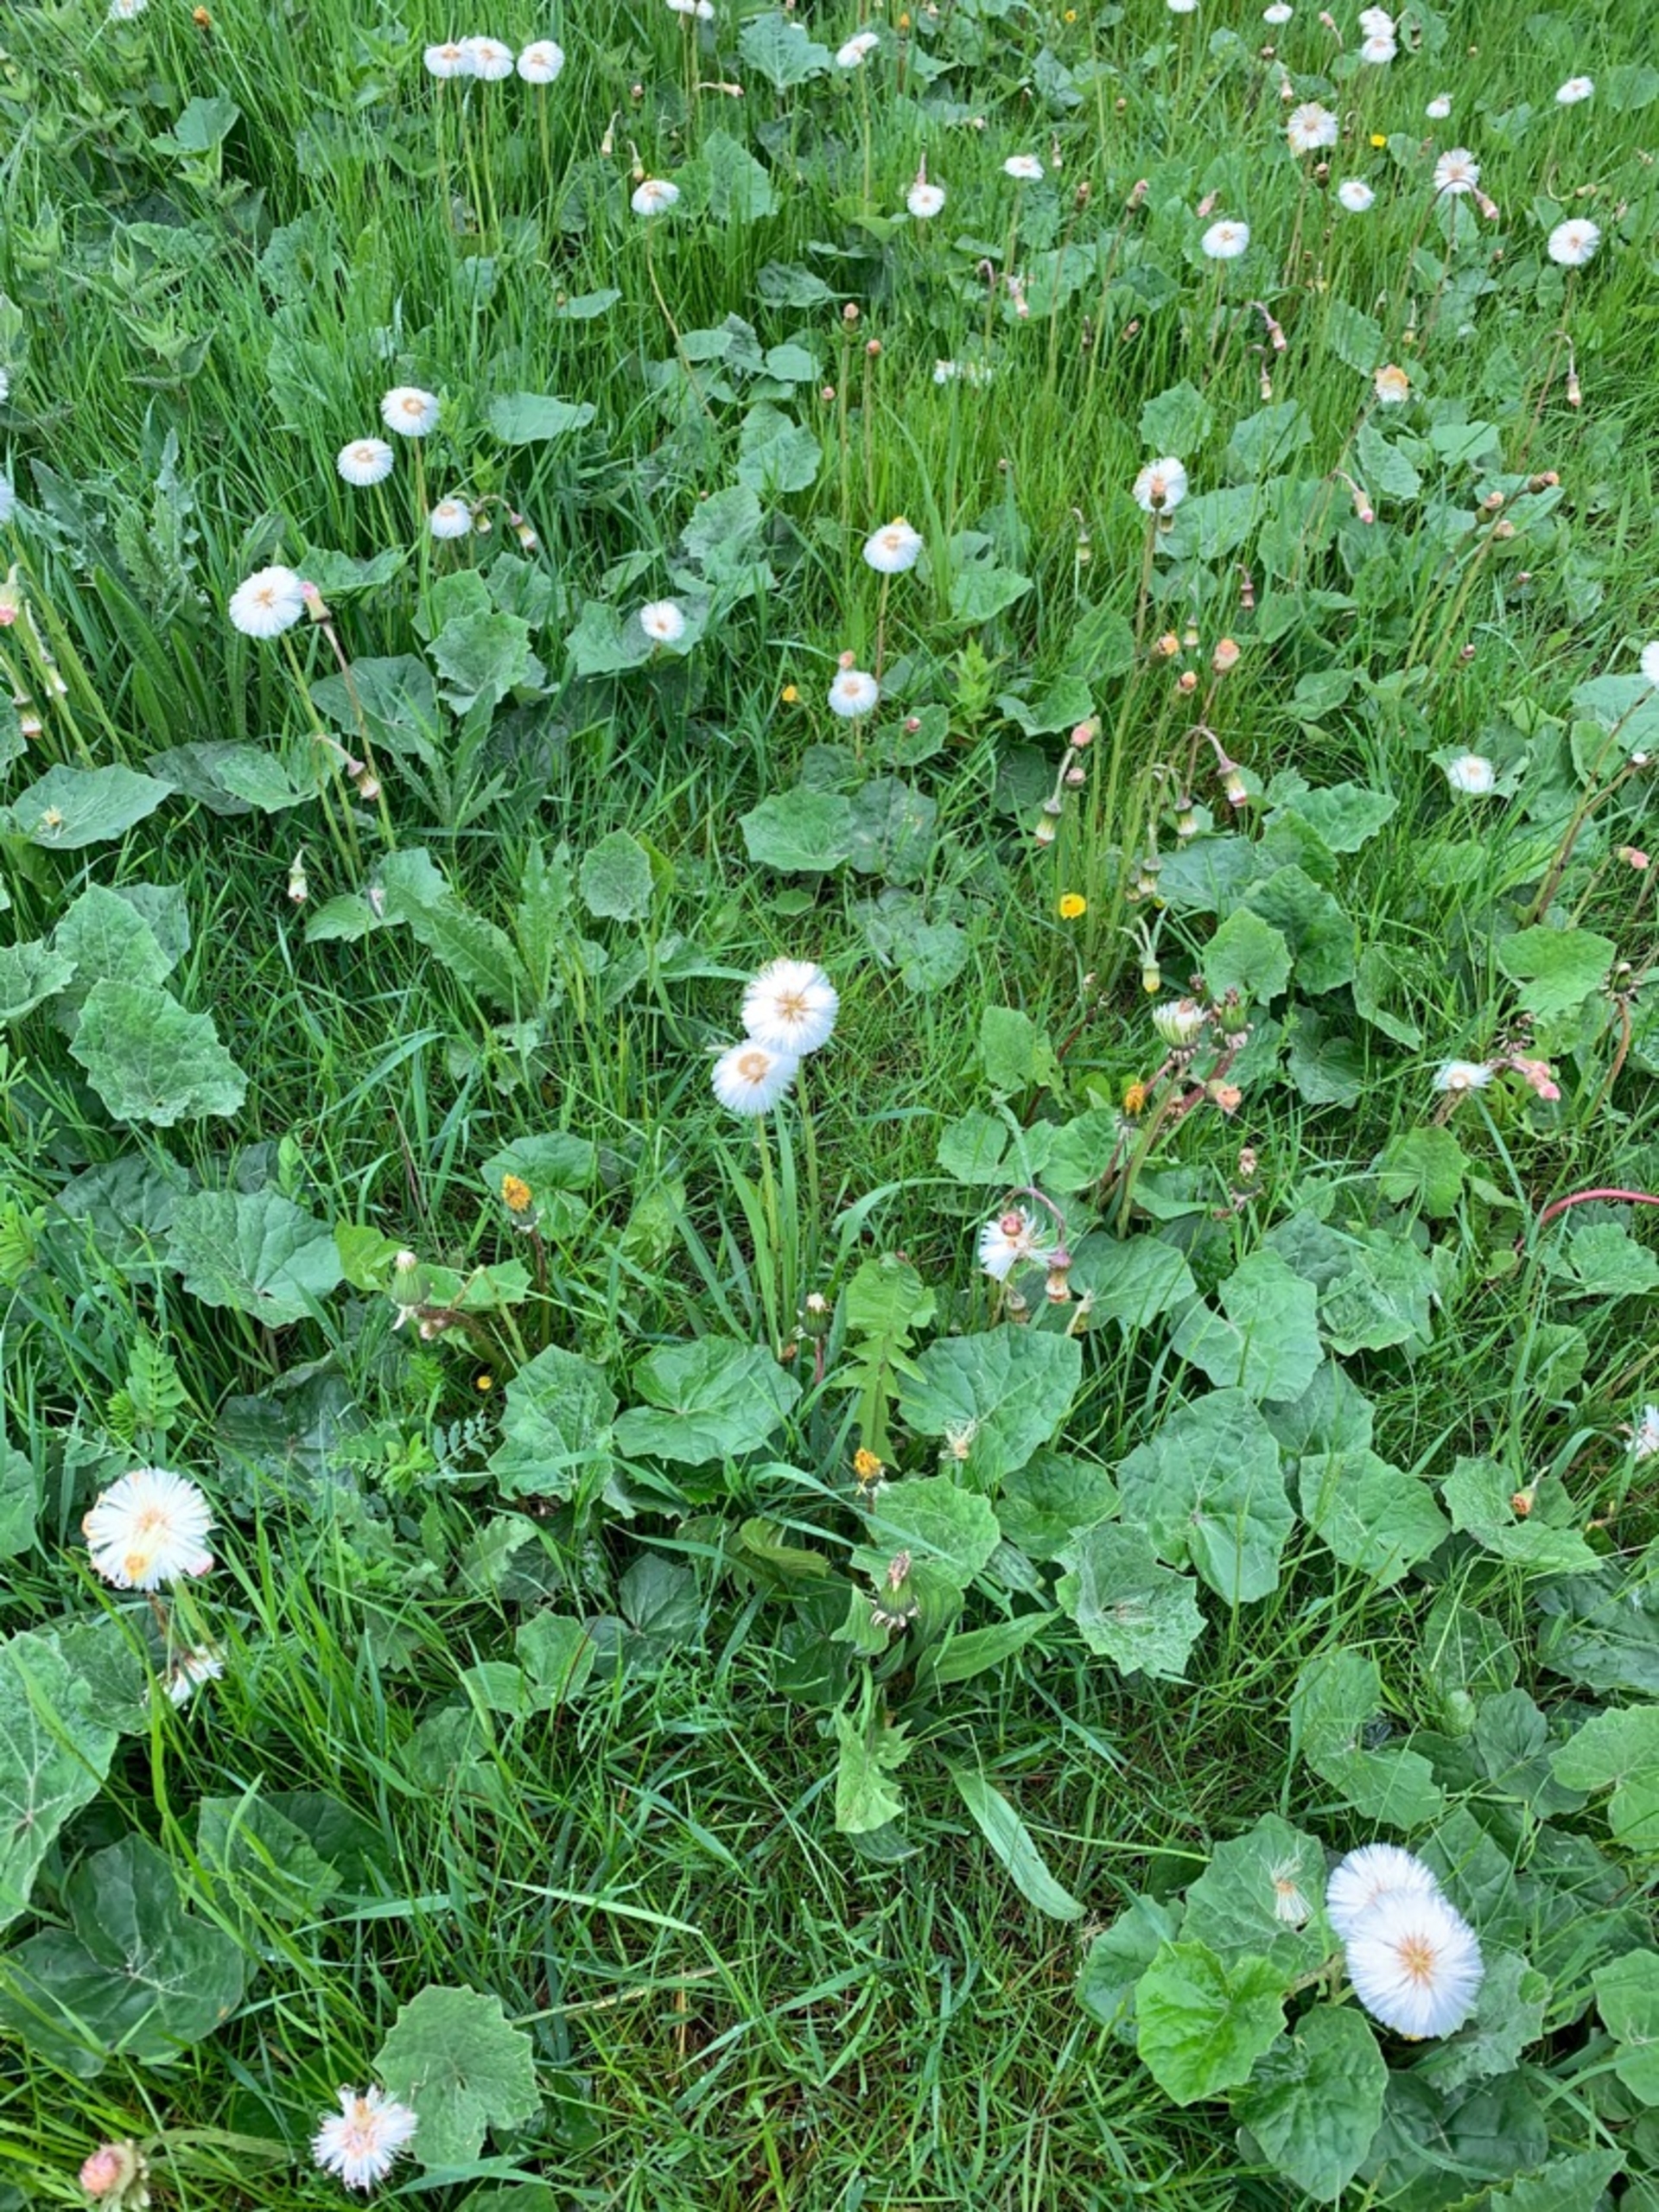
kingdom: Plantae
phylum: Tracheophyta
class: Magnoliopsida
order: Asterales
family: Asteraceae
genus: Tussilago
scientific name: Tussilago farfara
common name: Følfod
